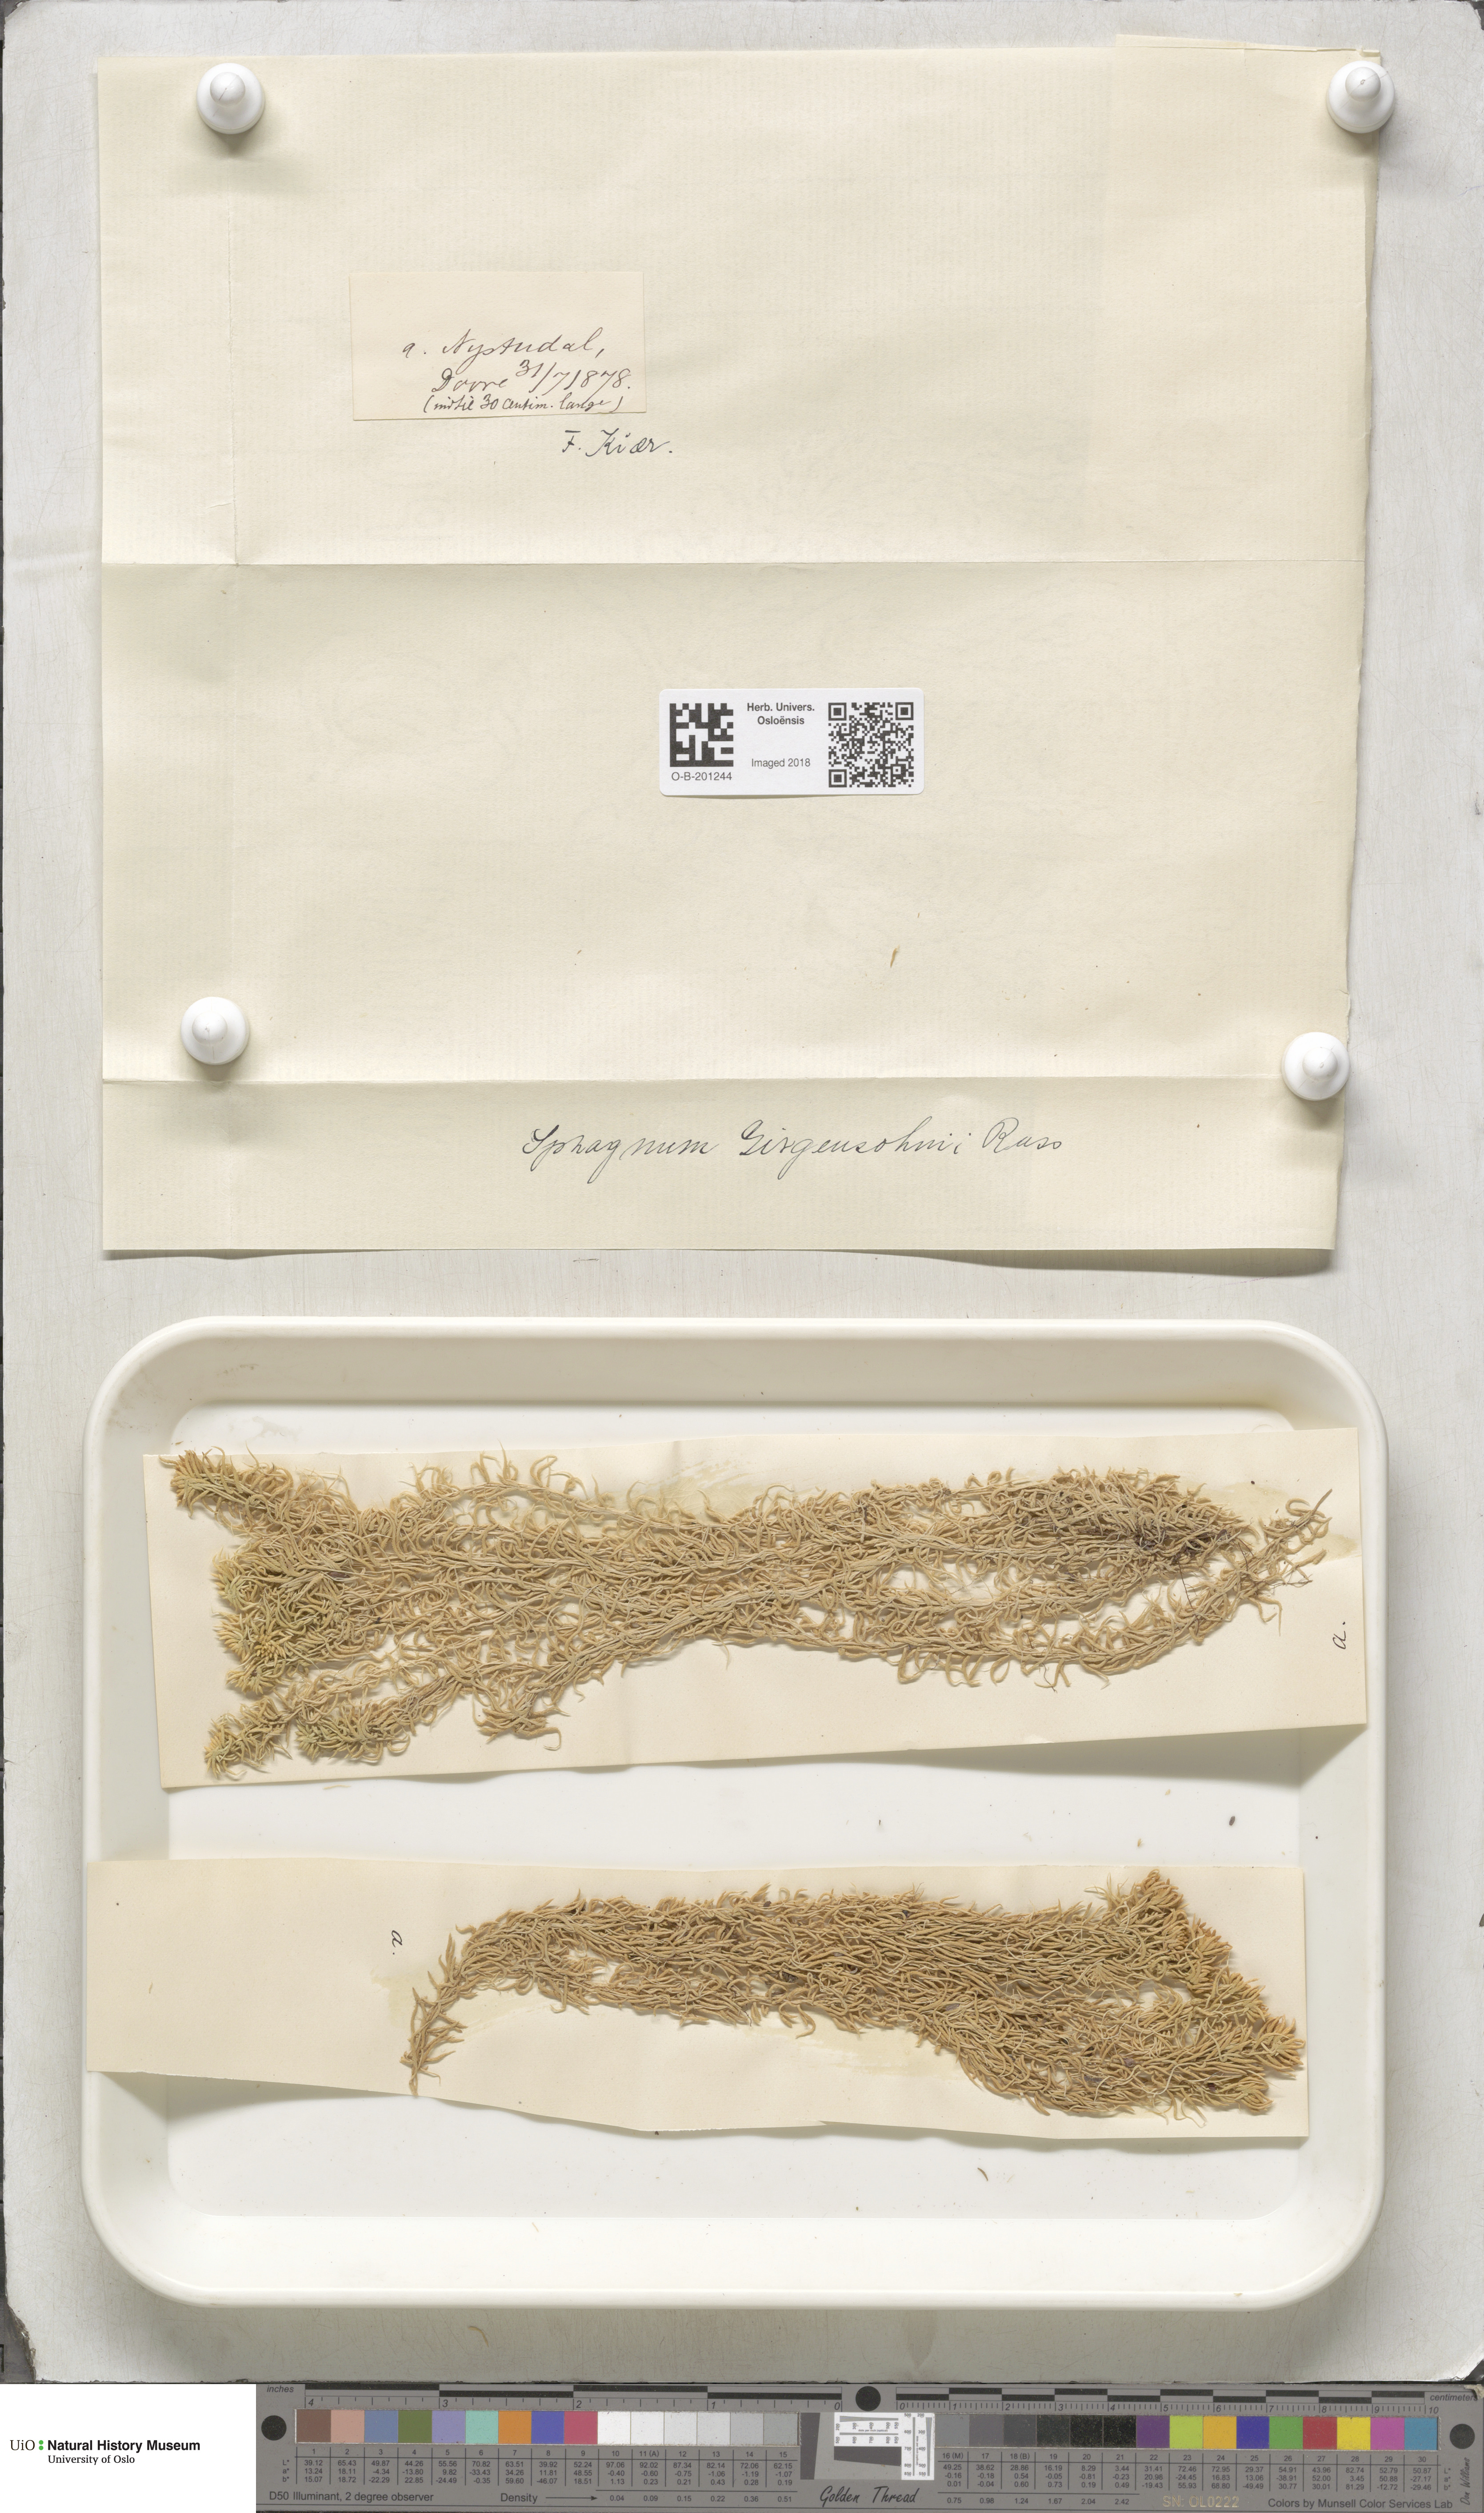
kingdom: Plantae
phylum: Bryophyta
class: Sphagnopsida
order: Sphagnales
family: Sphagnaceae
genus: Sphagnum
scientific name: Sphagnum girgensohnii
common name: Girgensohn's peat moss
